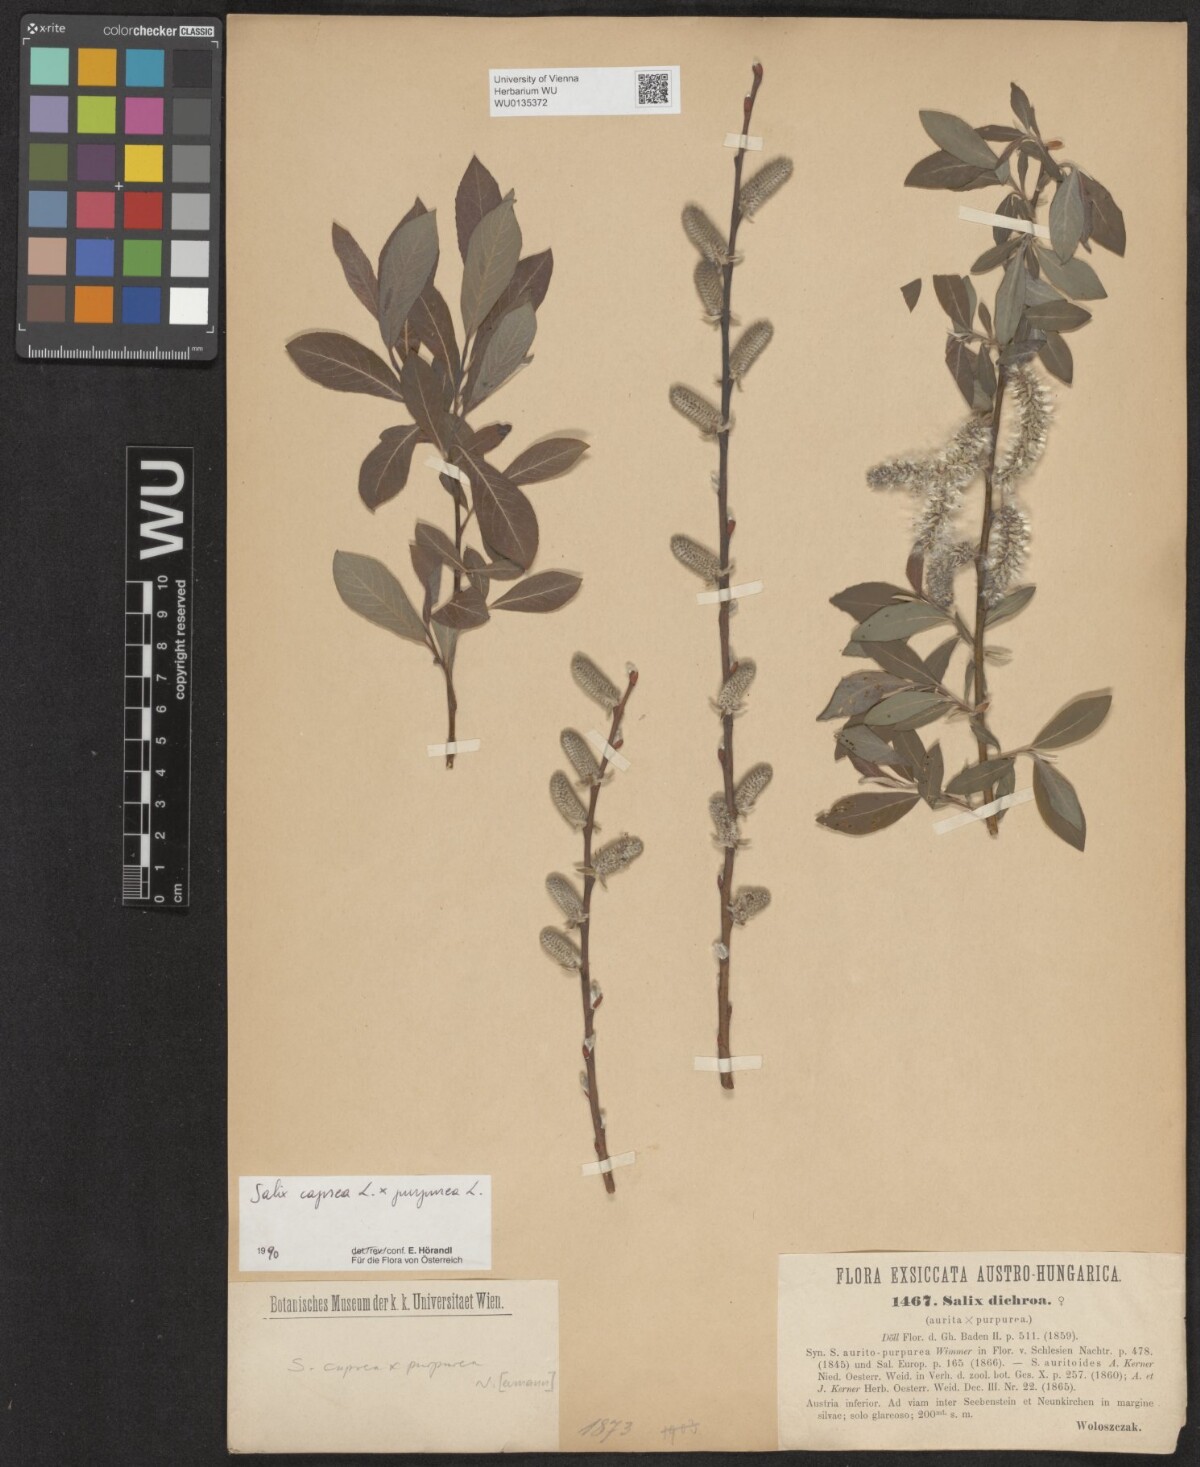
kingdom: Plantae
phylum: Tracheophyta
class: Magnoliopsida
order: Malpighiales
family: Salicaceae
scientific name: Salicaceae
